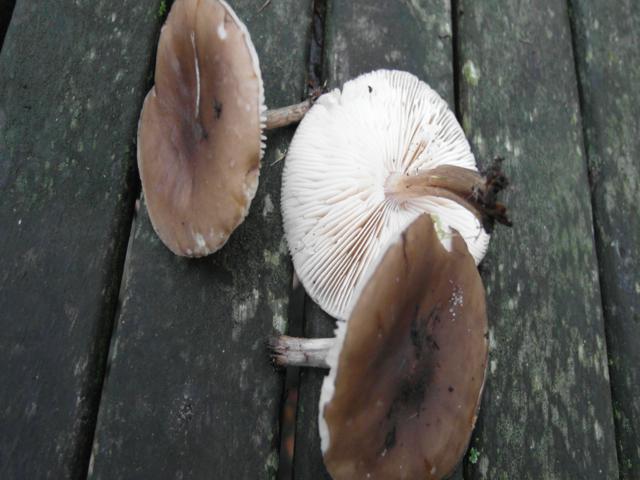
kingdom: Fungi
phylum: Basidiomycota
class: Agaricomycetes
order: Agaricales
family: Tricholomataceae
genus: Melanoleuca
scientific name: Melanoleuca polioleuca
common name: hvidbladet munkehat
